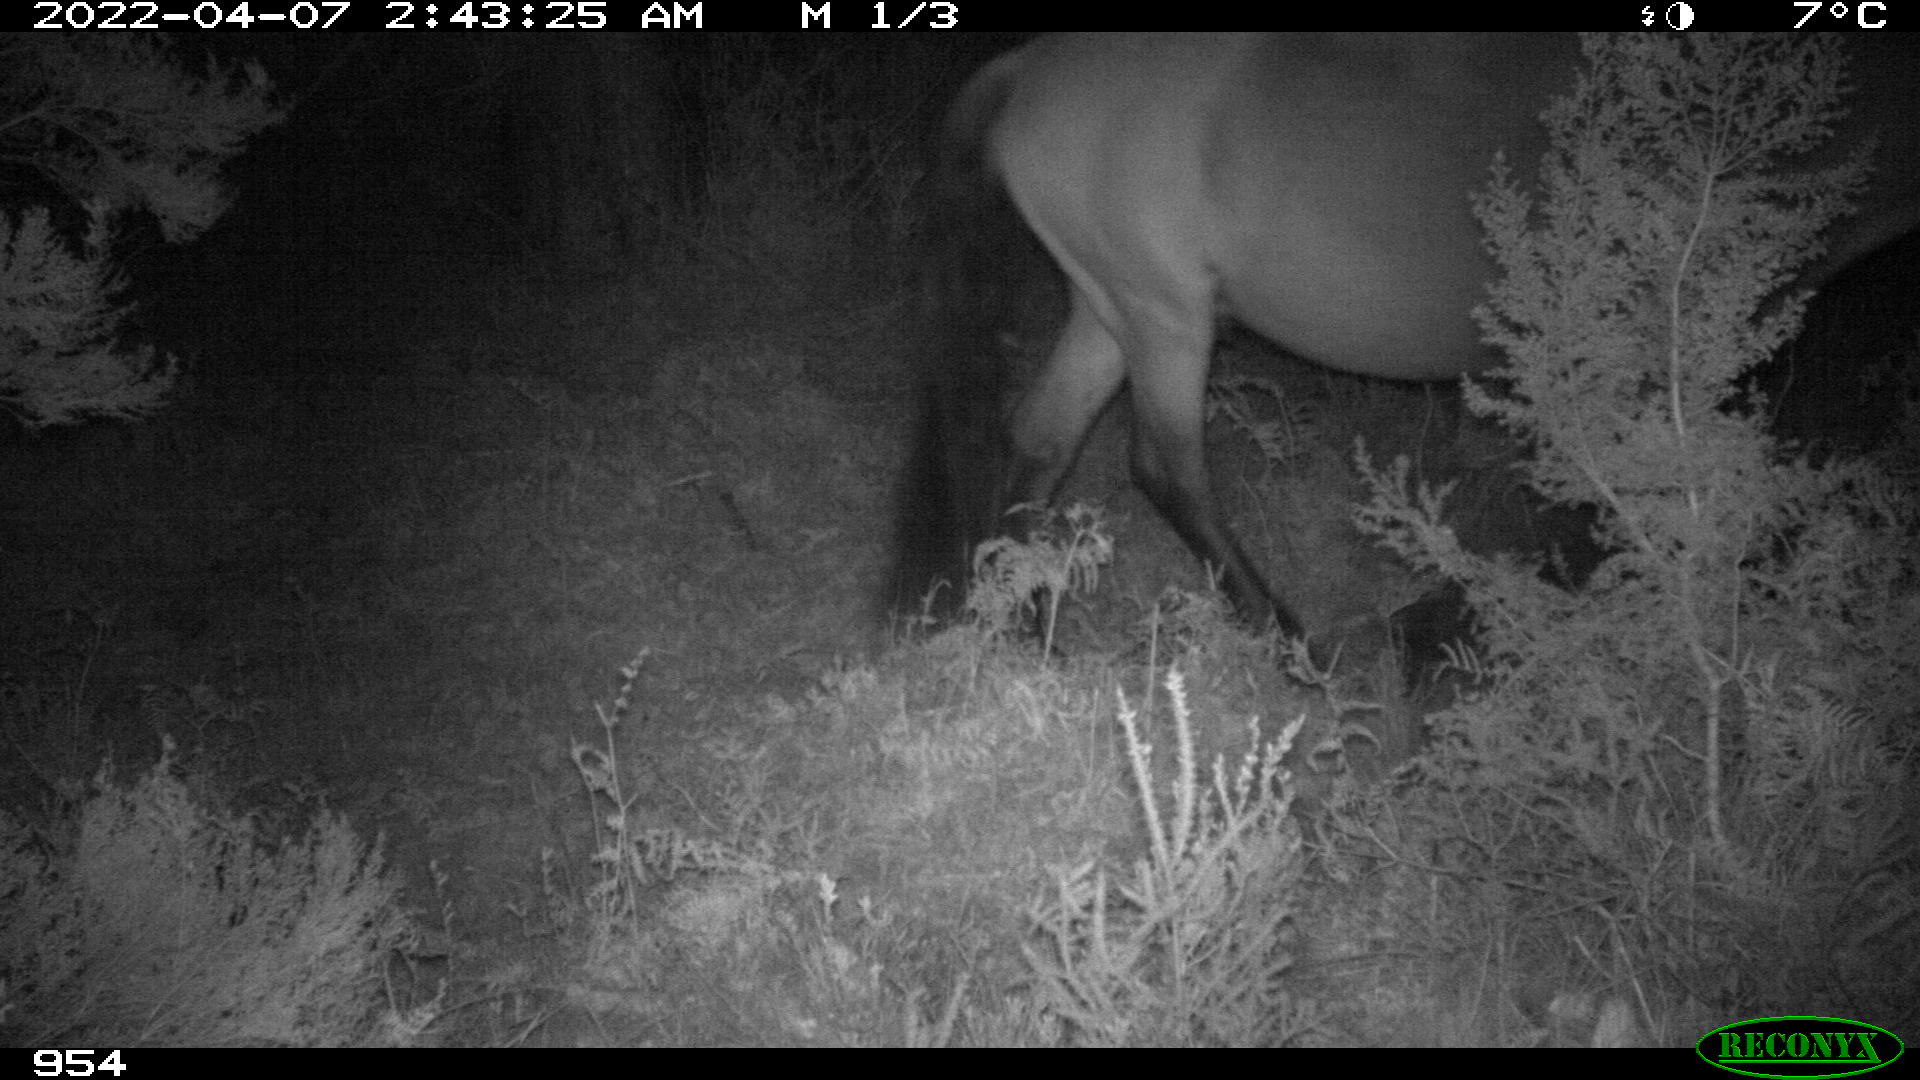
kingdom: Animalia
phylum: Chordata
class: Mammalia
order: Perissodactyla
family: Equidae
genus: Equus
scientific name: Equus caballus
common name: Horse
